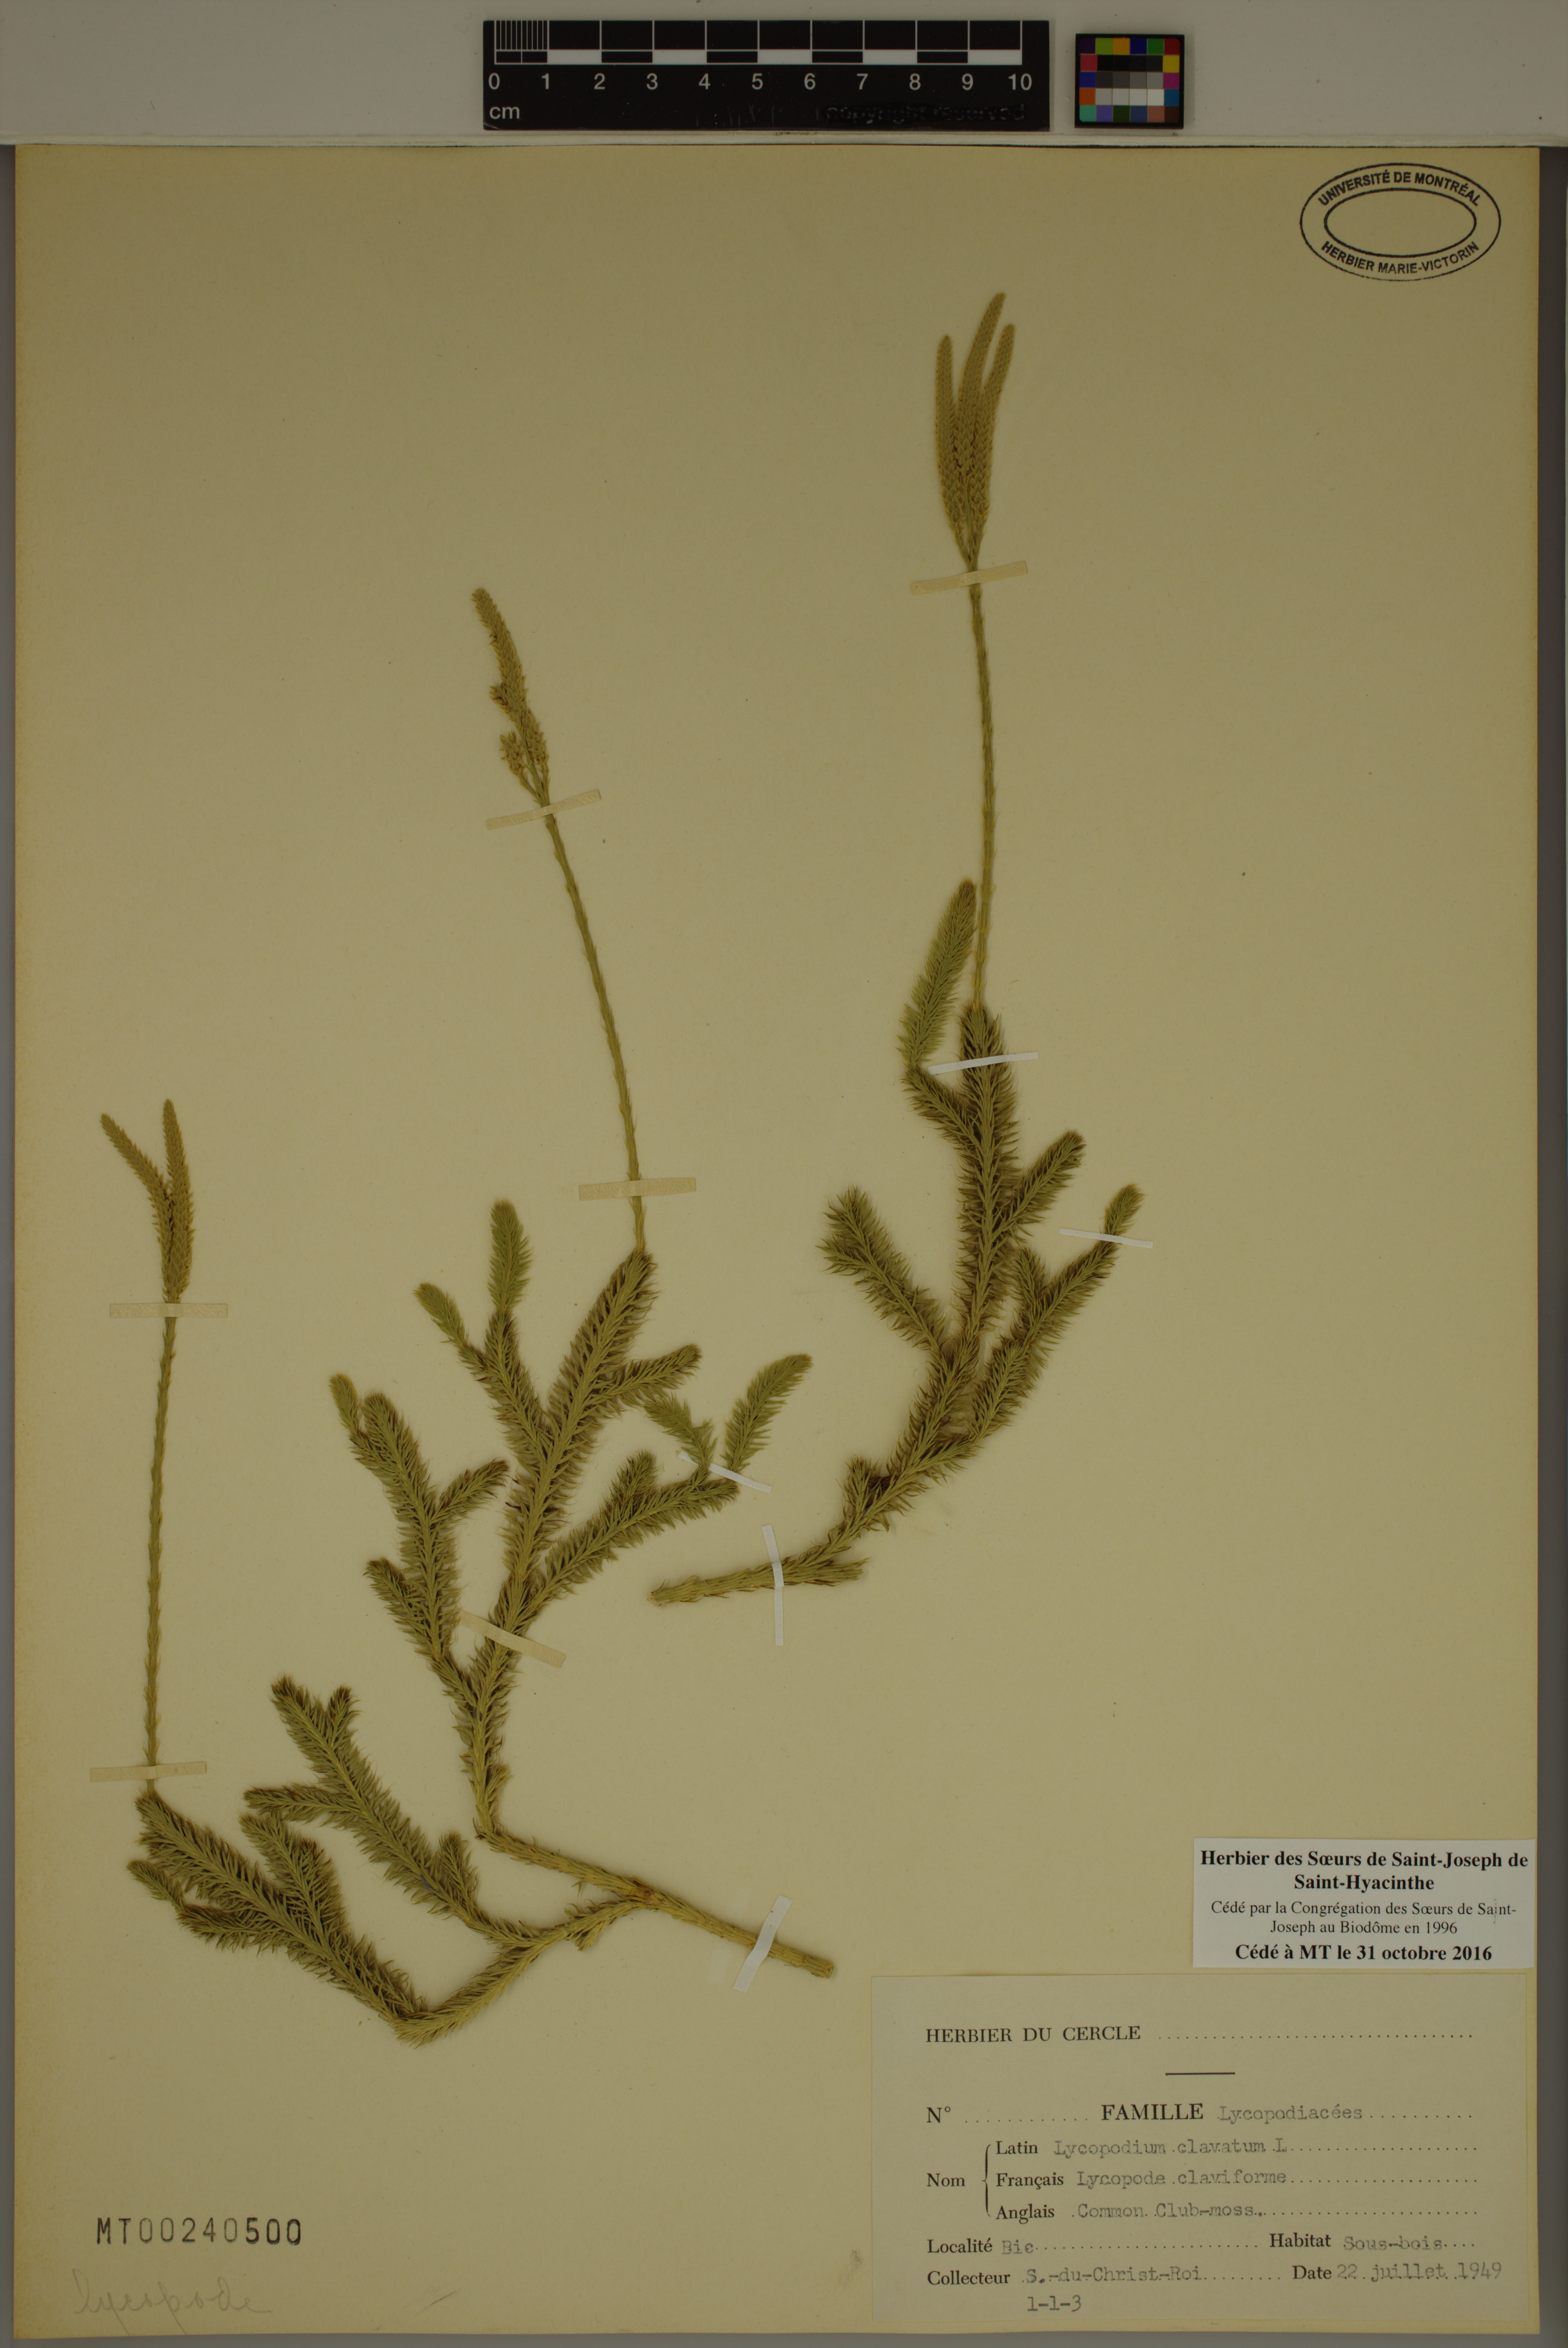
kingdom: Plantae
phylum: Tracheophyta
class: Lycopodiopsida
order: Lycopodiales
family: Lycopodiaceae
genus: Lycopodium
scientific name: Lycopodium clavatum
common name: Stag's-horn clubmoss
